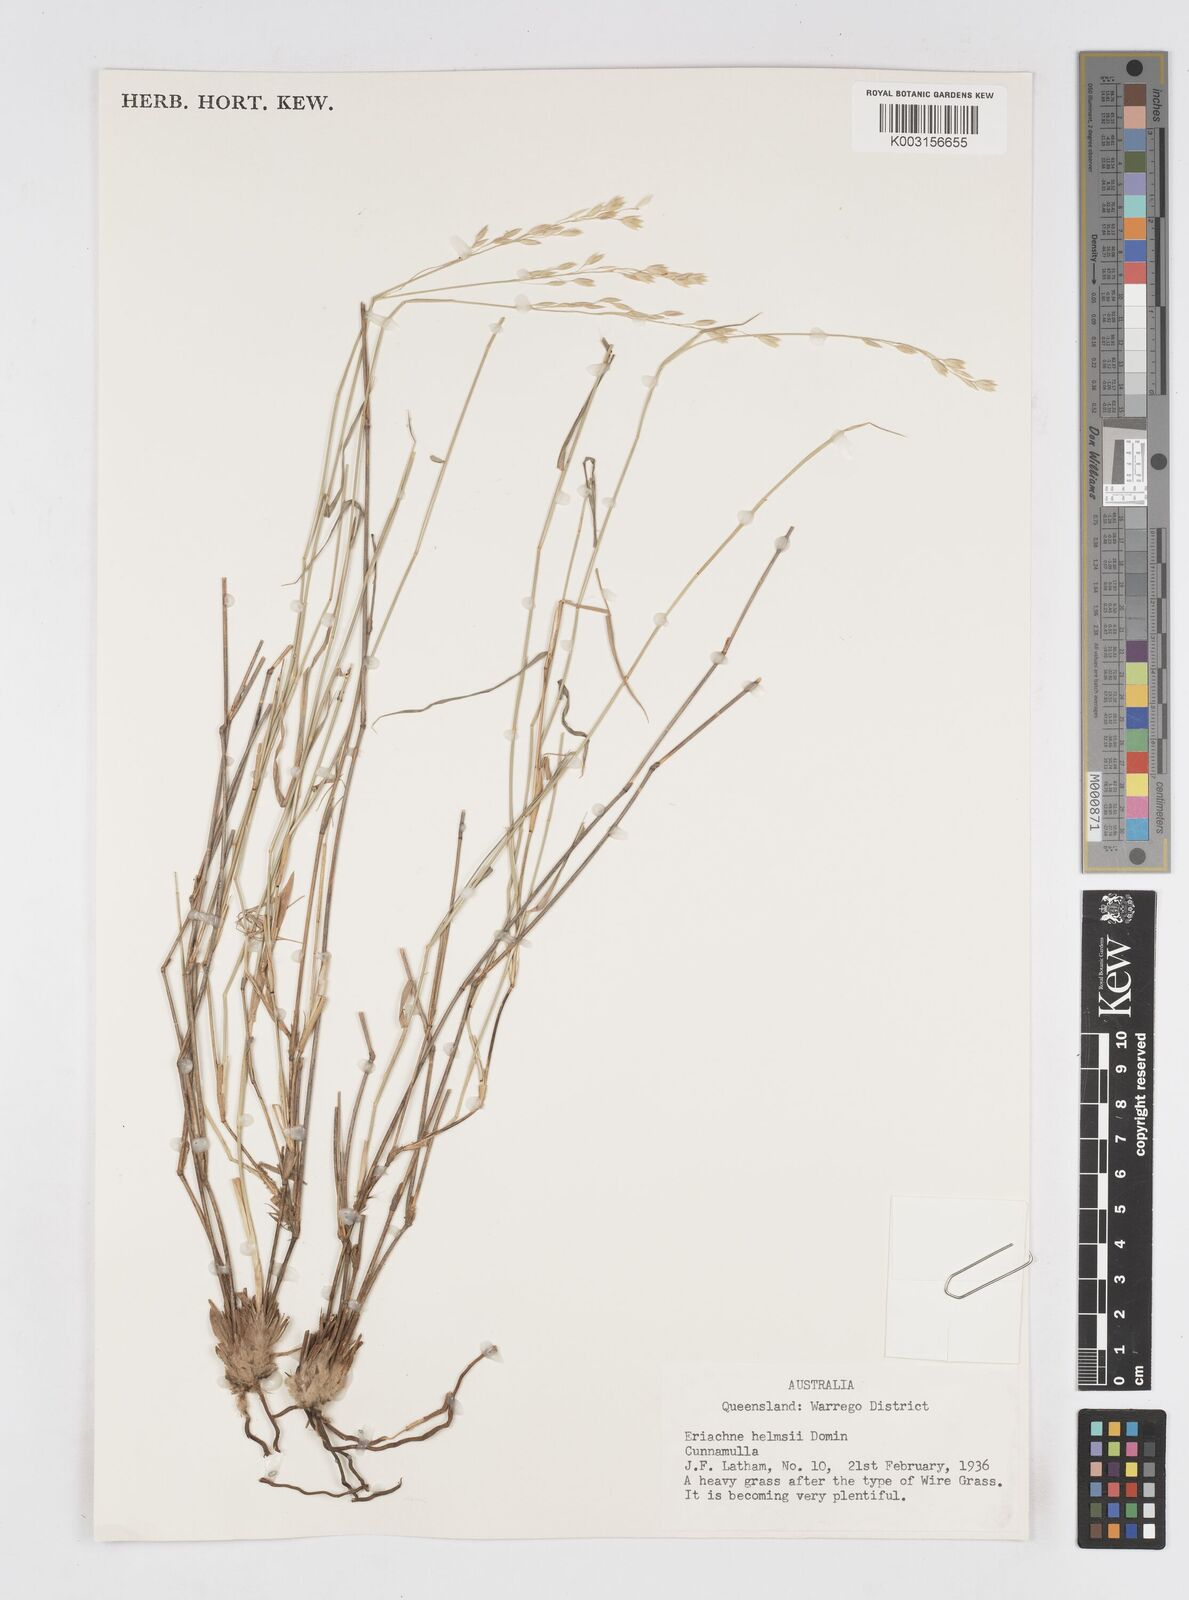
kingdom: Plantae
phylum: Tracheophyta
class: Liliopsida
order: Poales
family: Poaceae
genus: Eriachne
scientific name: Eriachne helmsii
